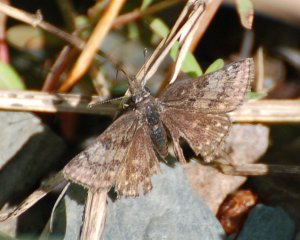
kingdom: Animalia
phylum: Arthropoda
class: Insecta
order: Lepidoptera
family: Hesperiidae
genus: Erynnis
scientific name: Erynnis icelus
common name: Dreamy Duskywing
